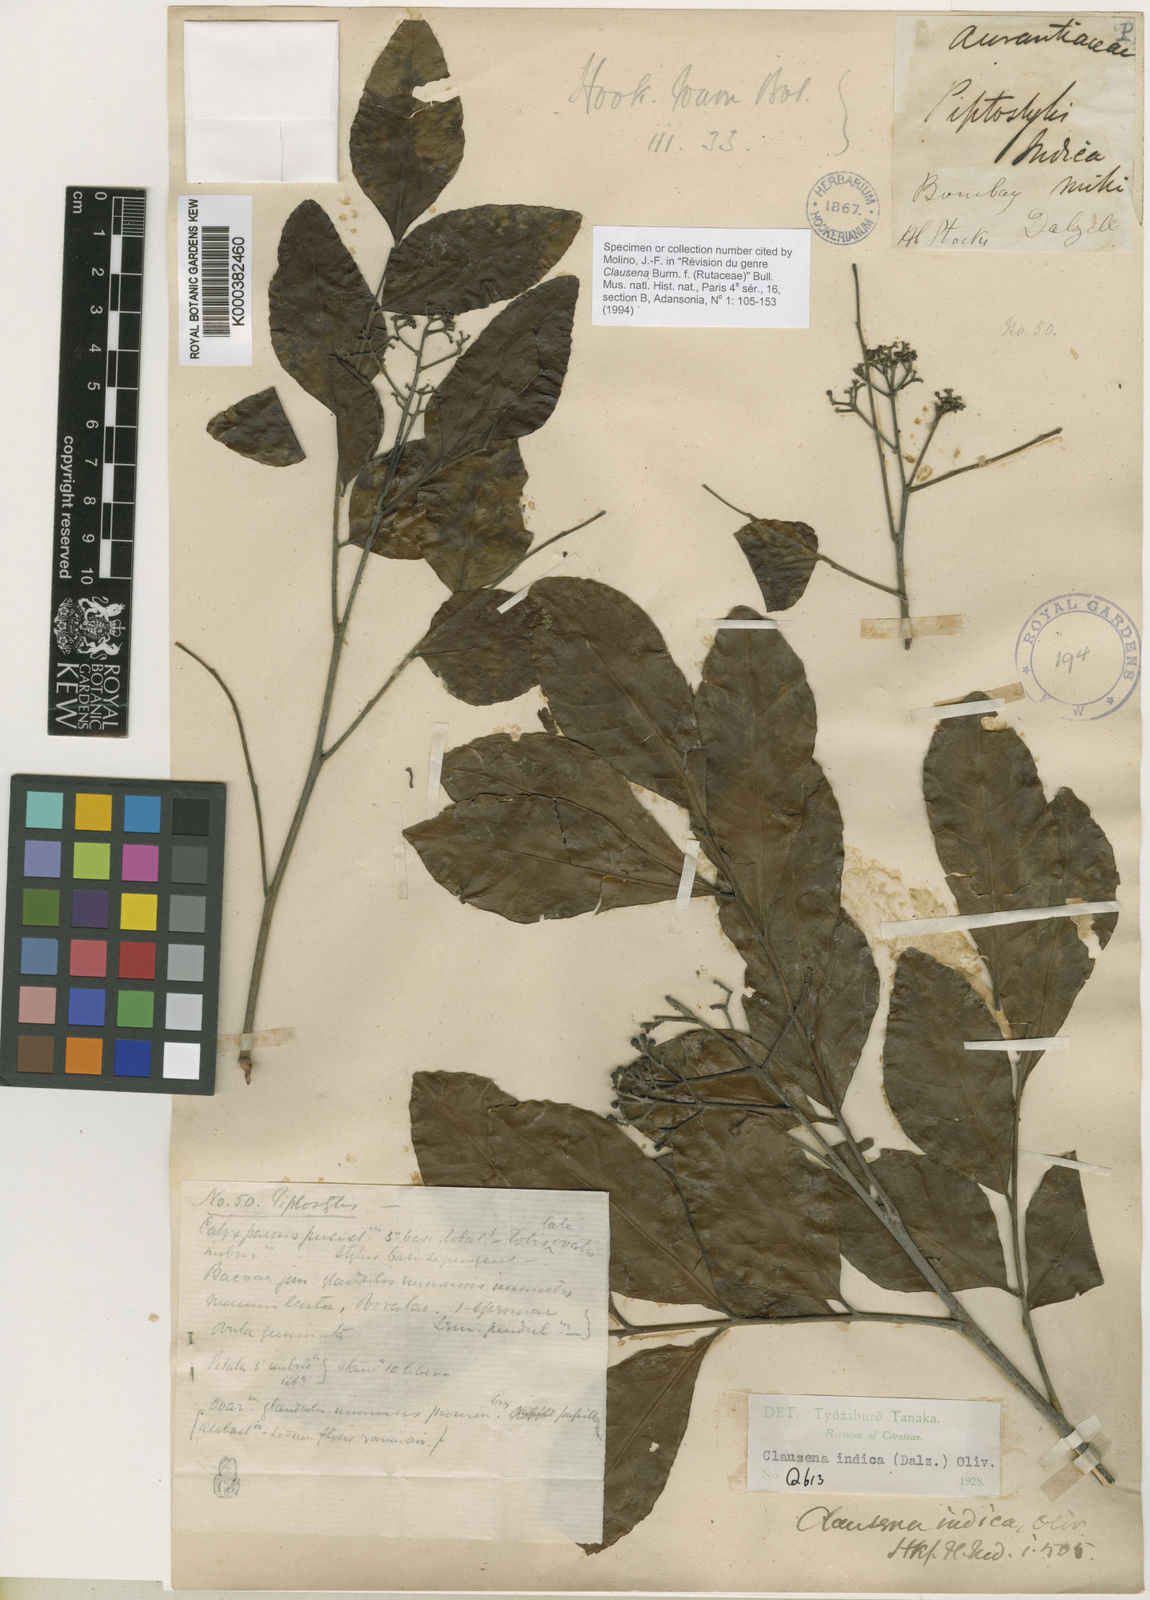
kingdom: Plantae
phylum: Tracheophyta
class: Magnoliopsida
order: Sapindales
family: Rutaceae
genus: Clausena
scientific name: Clausena indica
